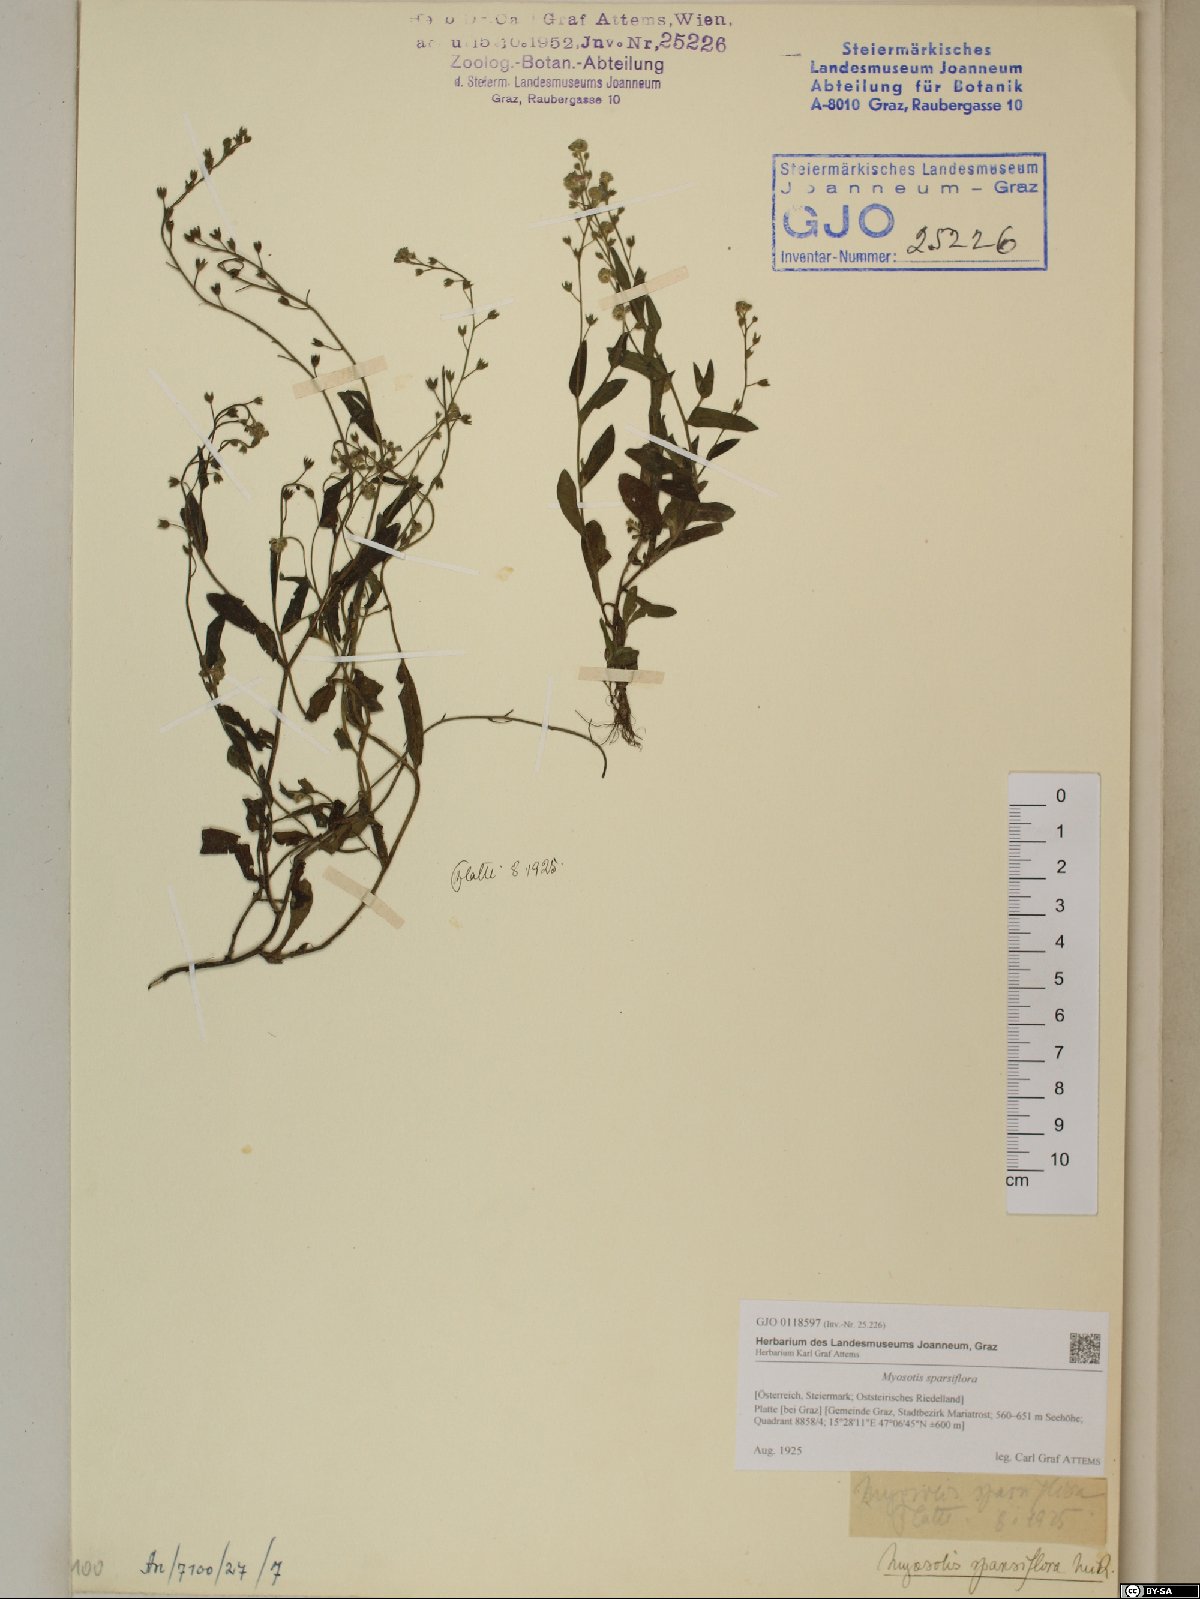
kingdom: Plantae
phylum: Tracheophyta
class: Magnoliopsida
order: Boraginales
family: Boraginaceae
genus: Myosotis
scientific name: Myosotis sparsiflora
